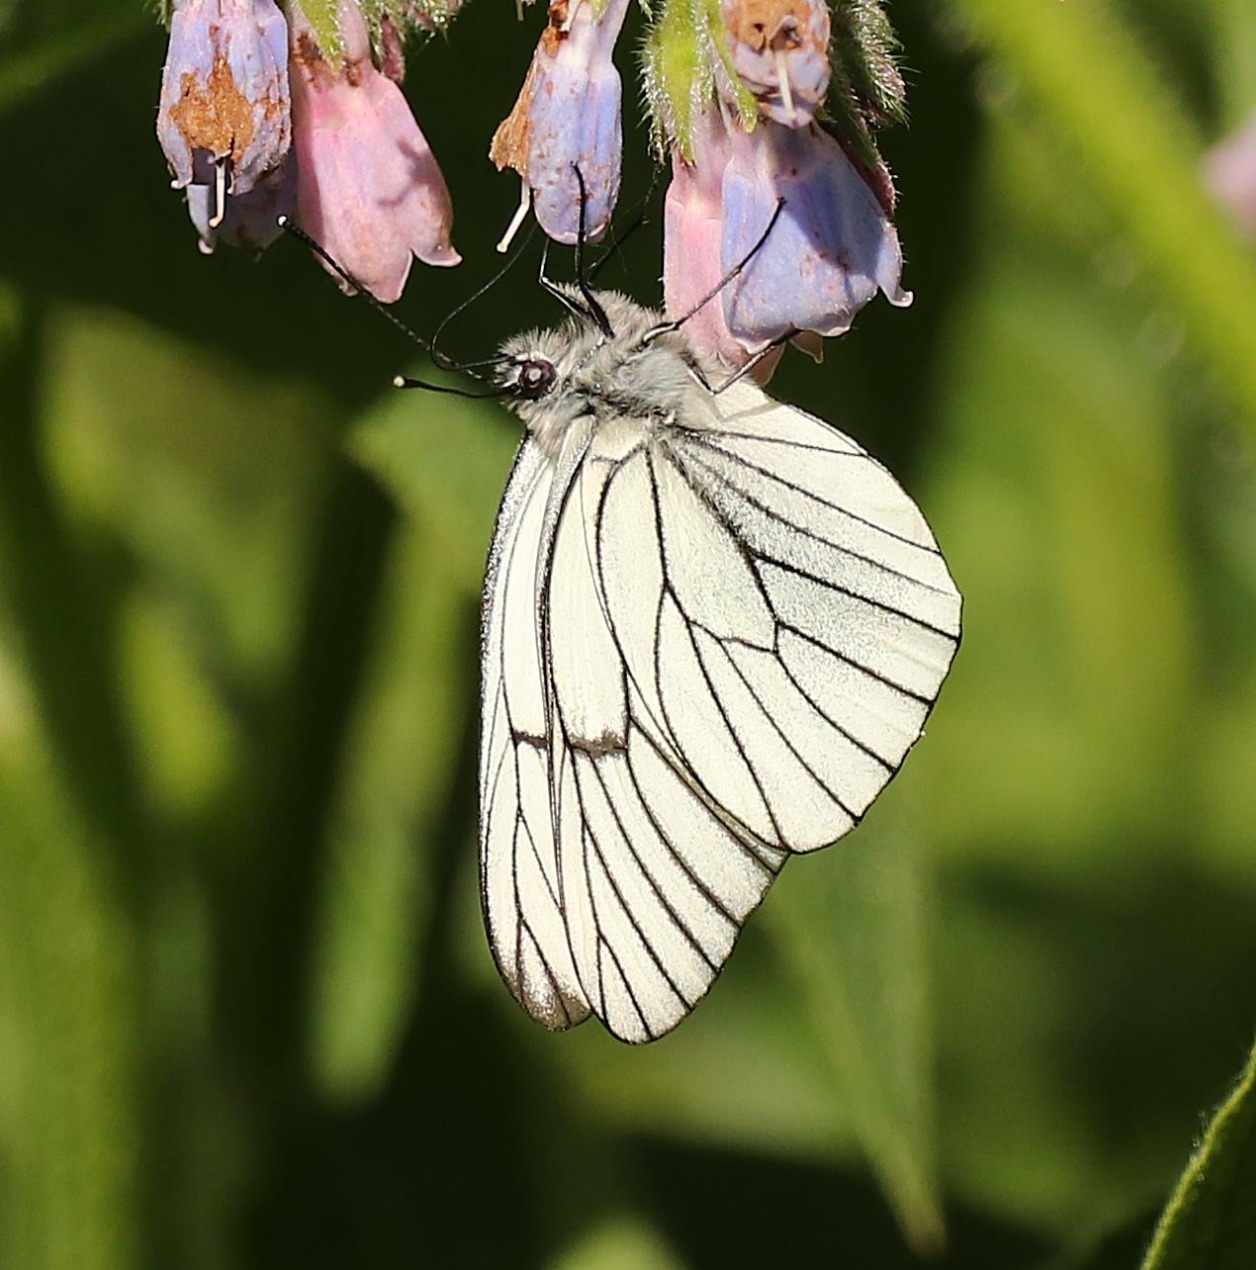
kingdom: Animalia
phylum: Arthropoda
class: Insecta
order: Lepidoptera
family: Pieridae
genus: Aporia
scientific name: Aporia crataegi
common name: Sortåret hvidvinge
